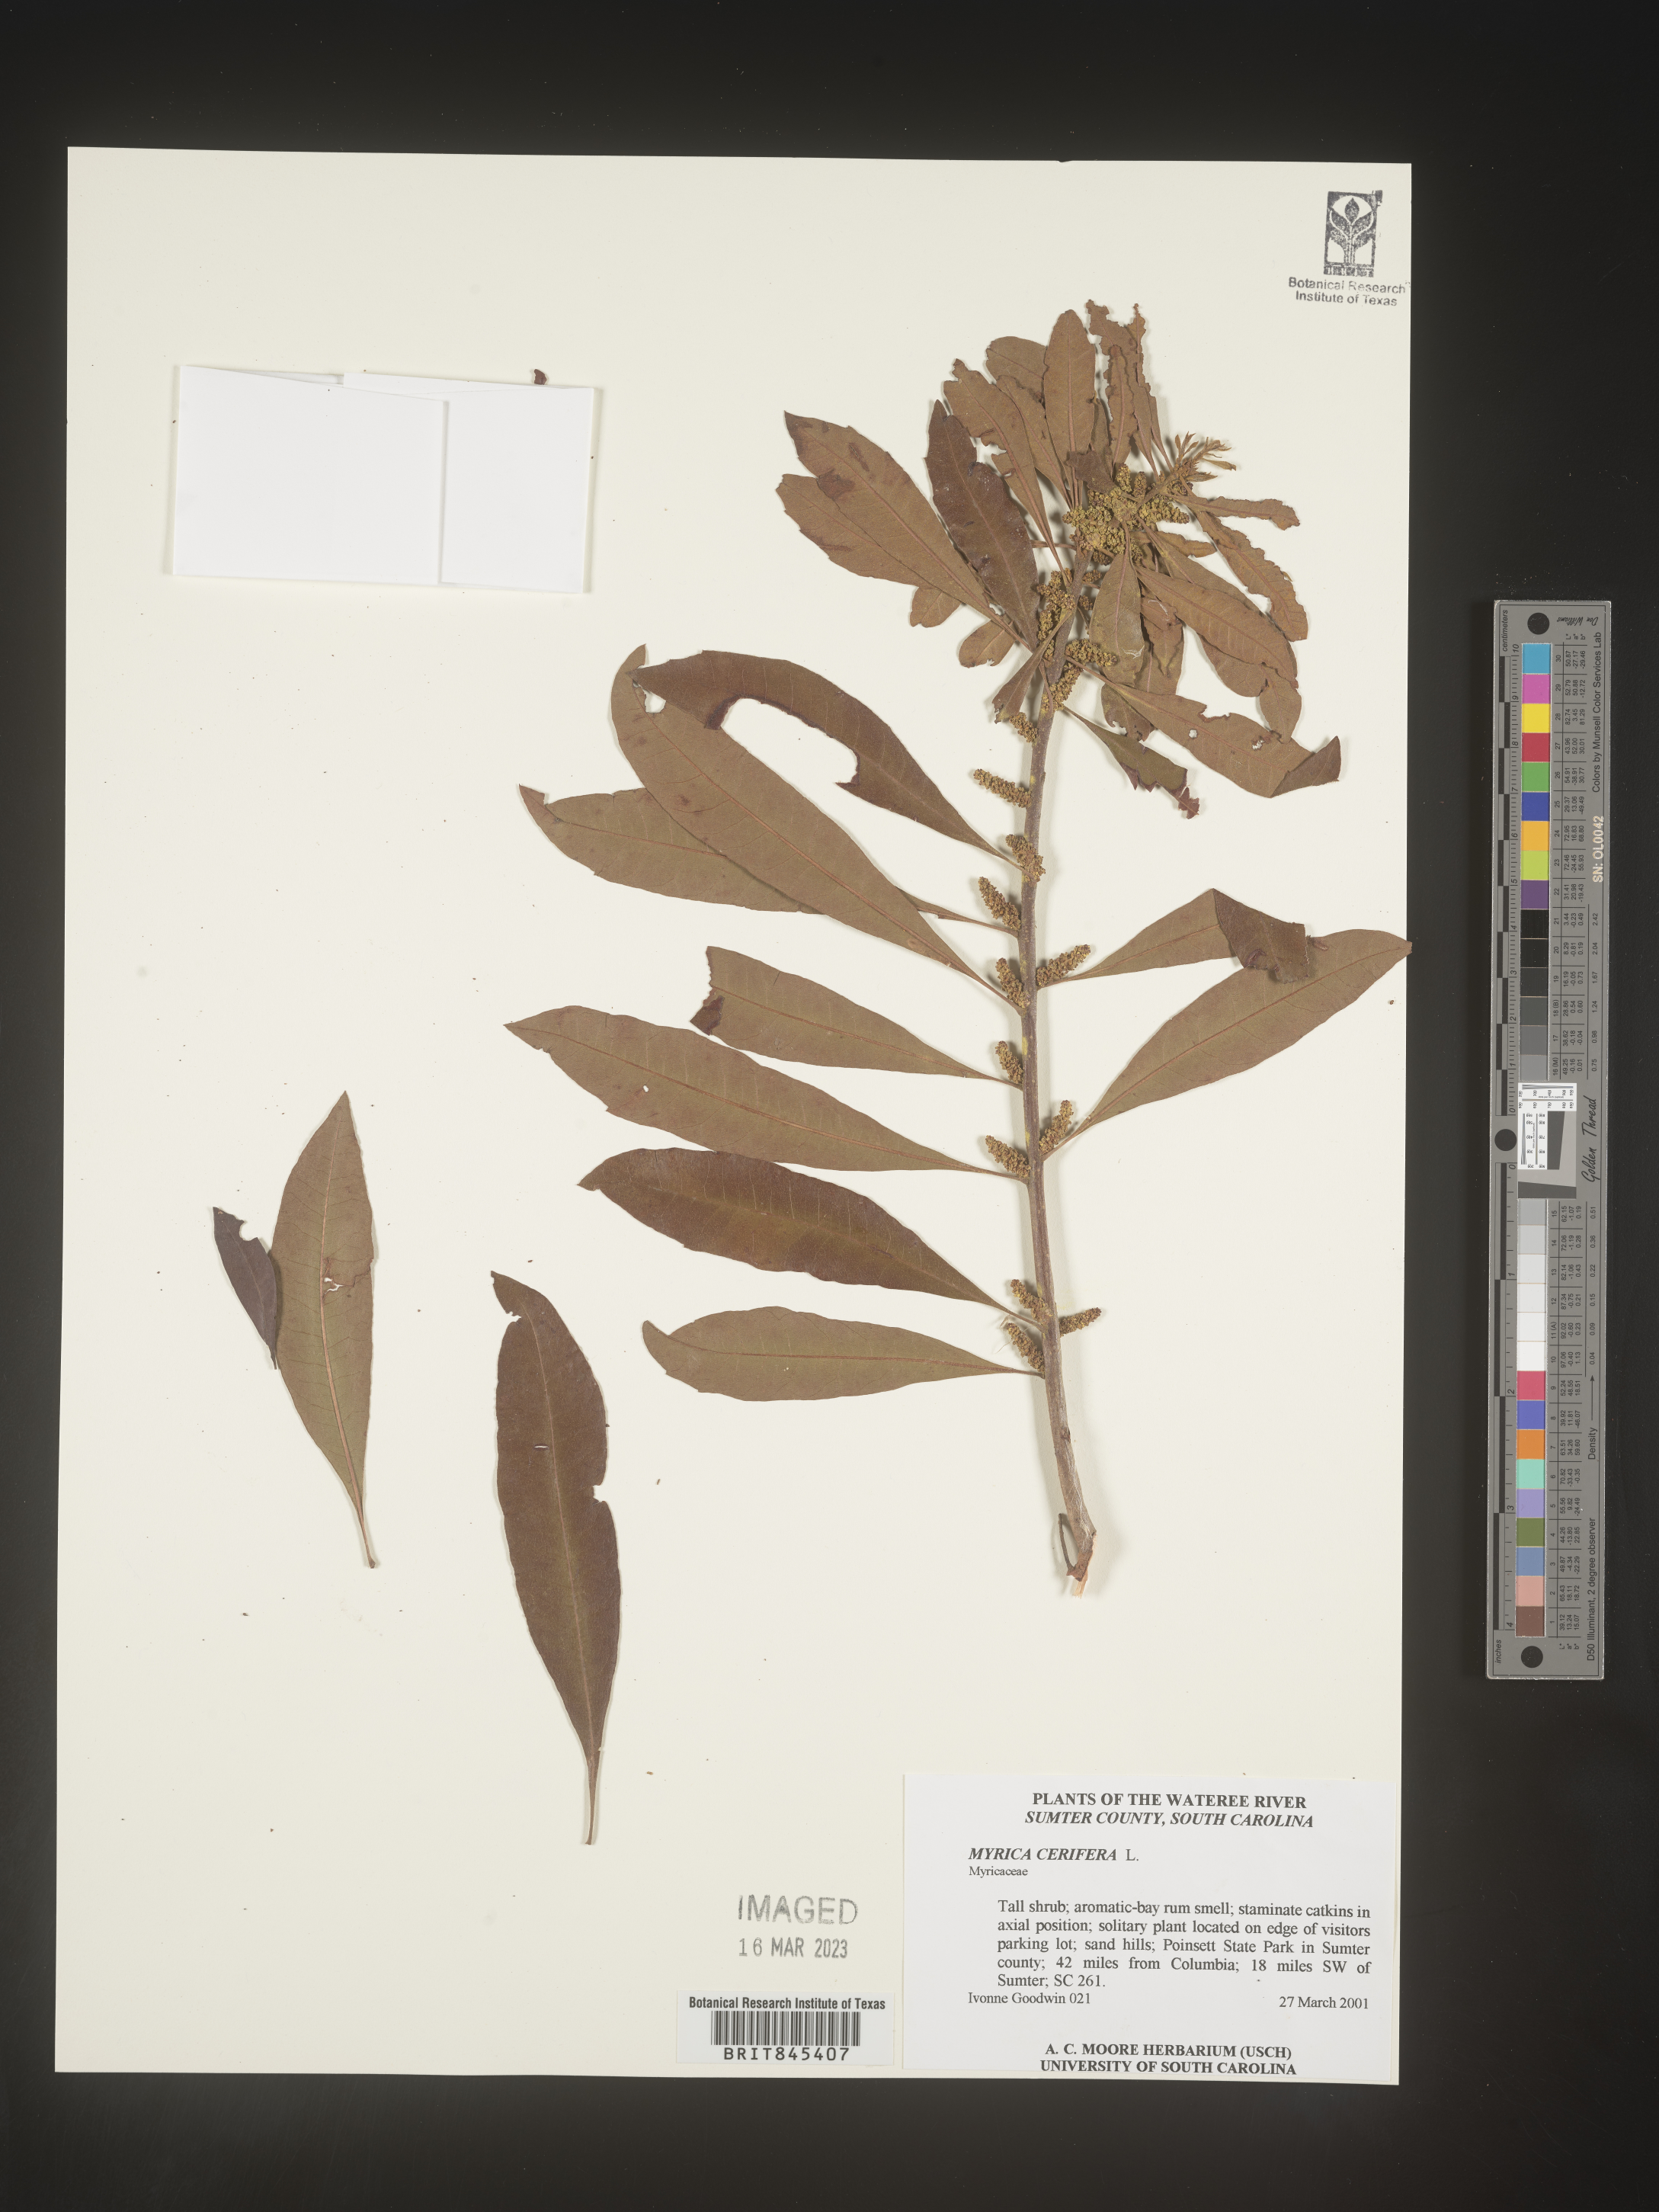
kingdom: Plantae
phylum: Tracheophyta
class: Magnoliopsida
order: Fagales
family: Myricaceae
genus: Morella
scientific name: Morella cerifera
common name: Wax myrtle
